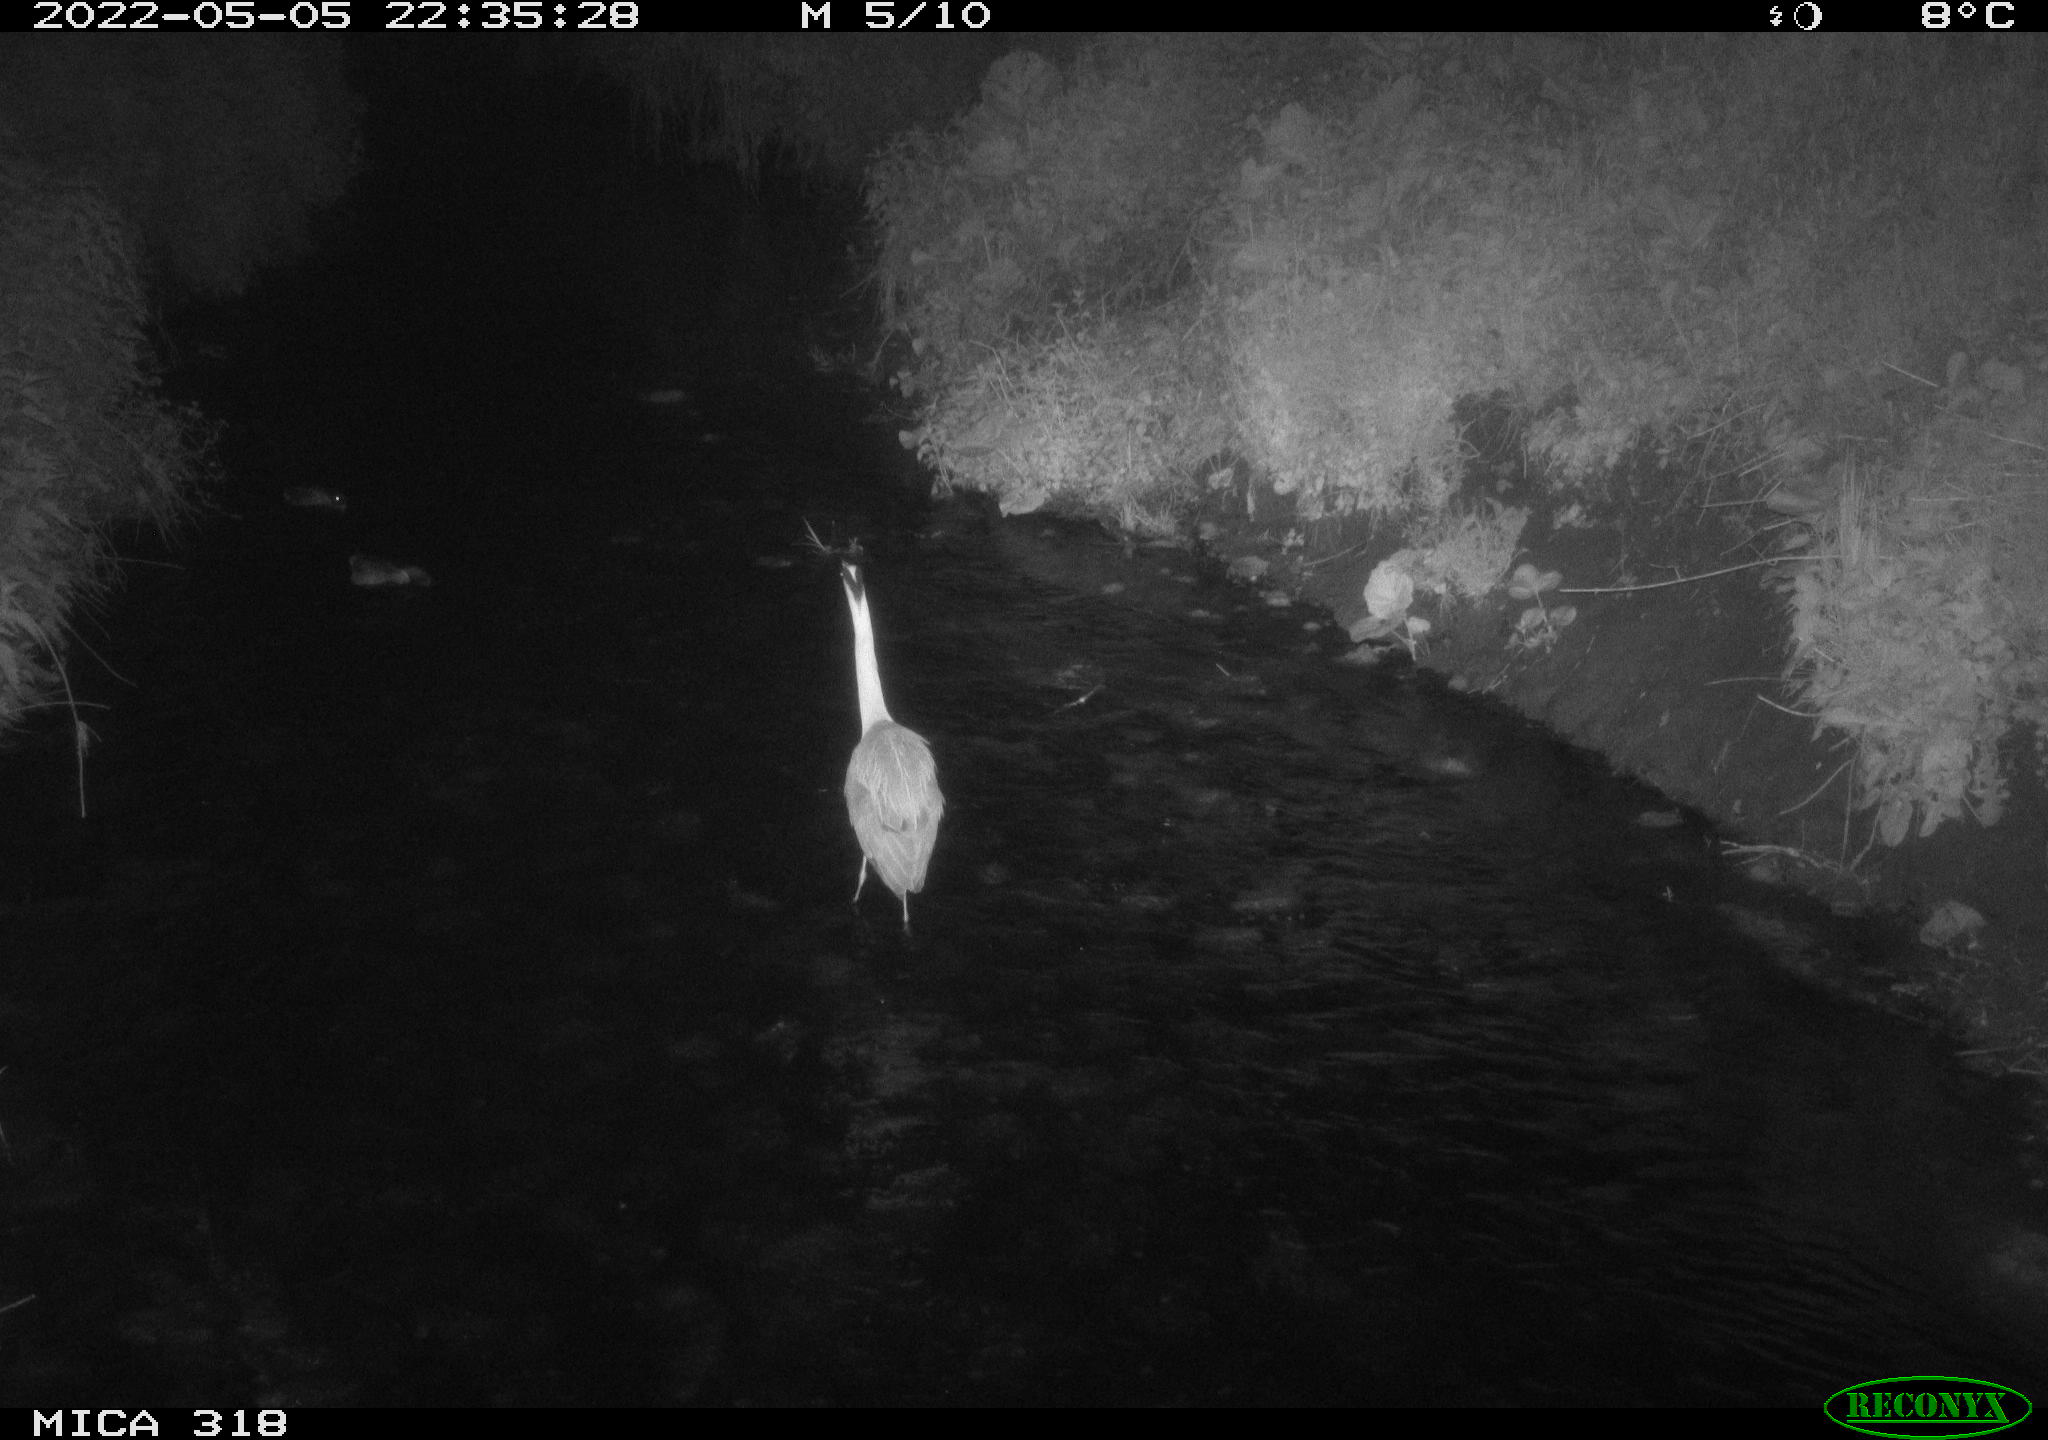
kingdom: Animalia
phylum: Chordata
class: Aves
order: Pelecaniformes
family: Ardeidae
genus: Ardea
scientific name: Ardea
